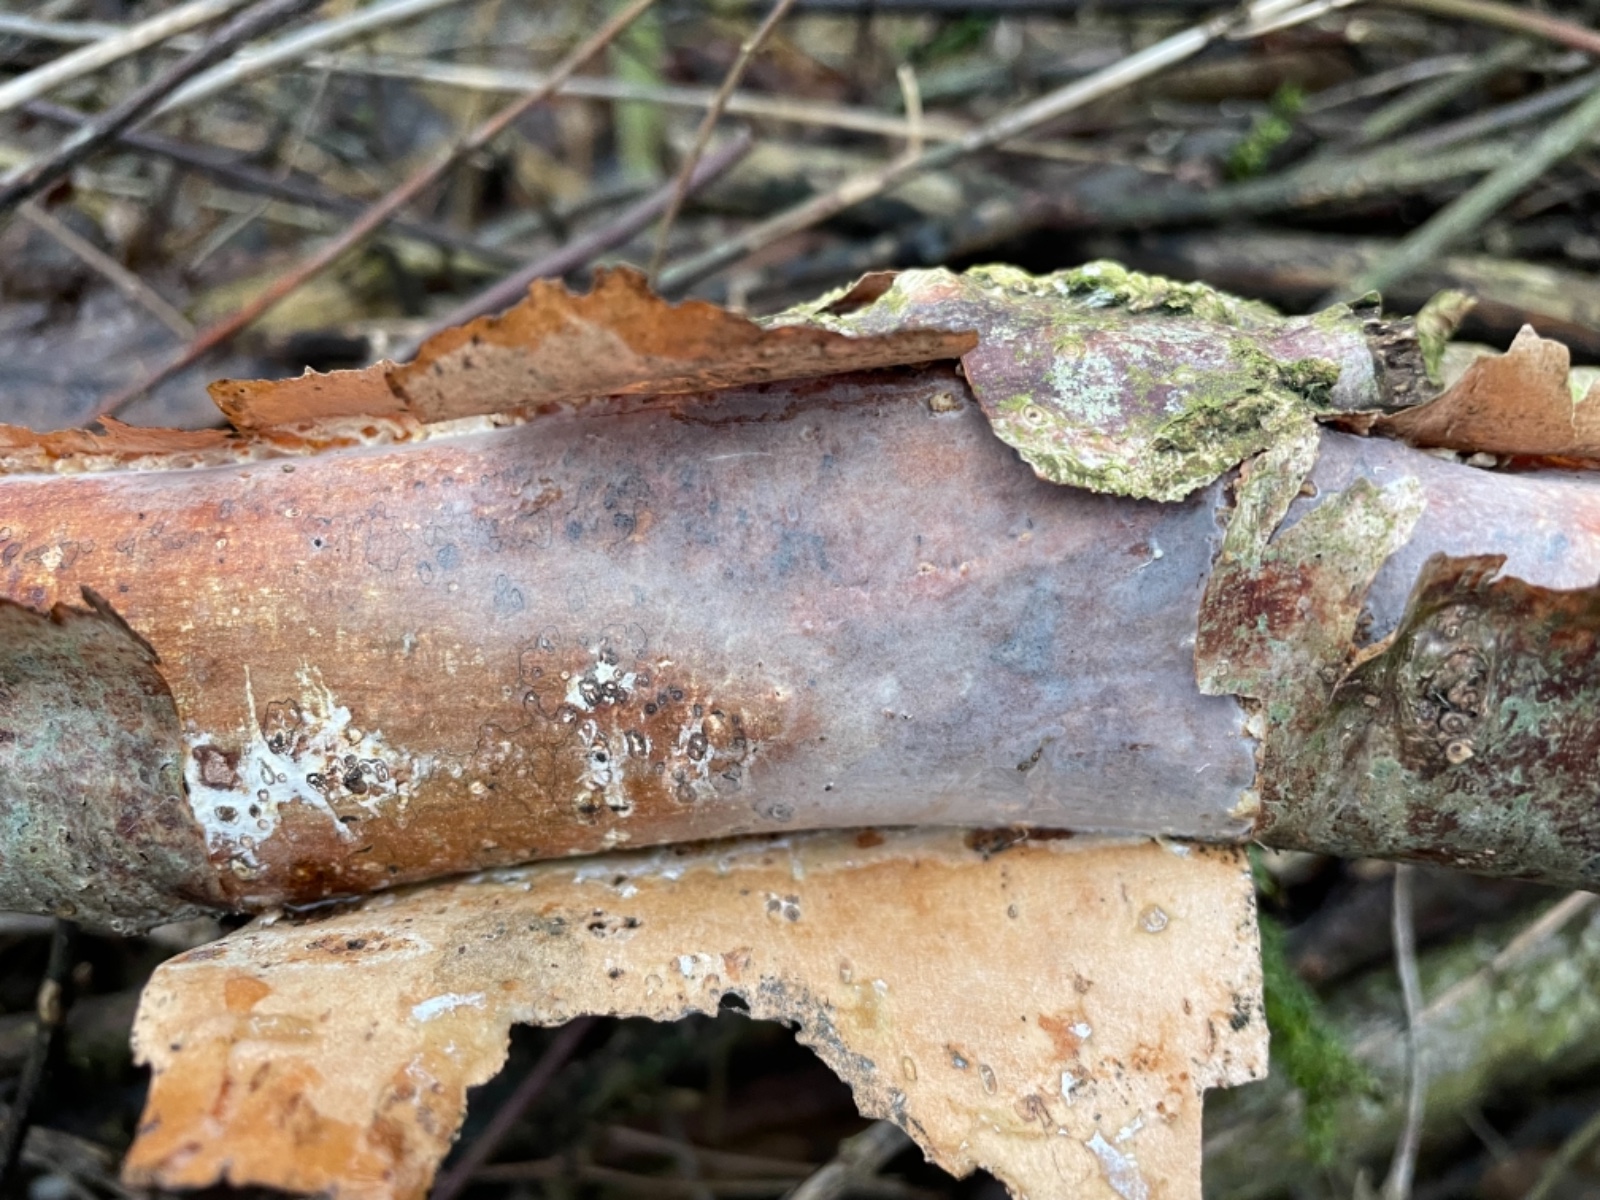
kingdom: Fungi
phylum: Basidiomycota
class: Agaricomycetes
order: Corticiales
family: Vuilleminiaceae
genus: Vuilleminia
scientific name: Vuilleminia coryli
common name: hassel-barksprænger
